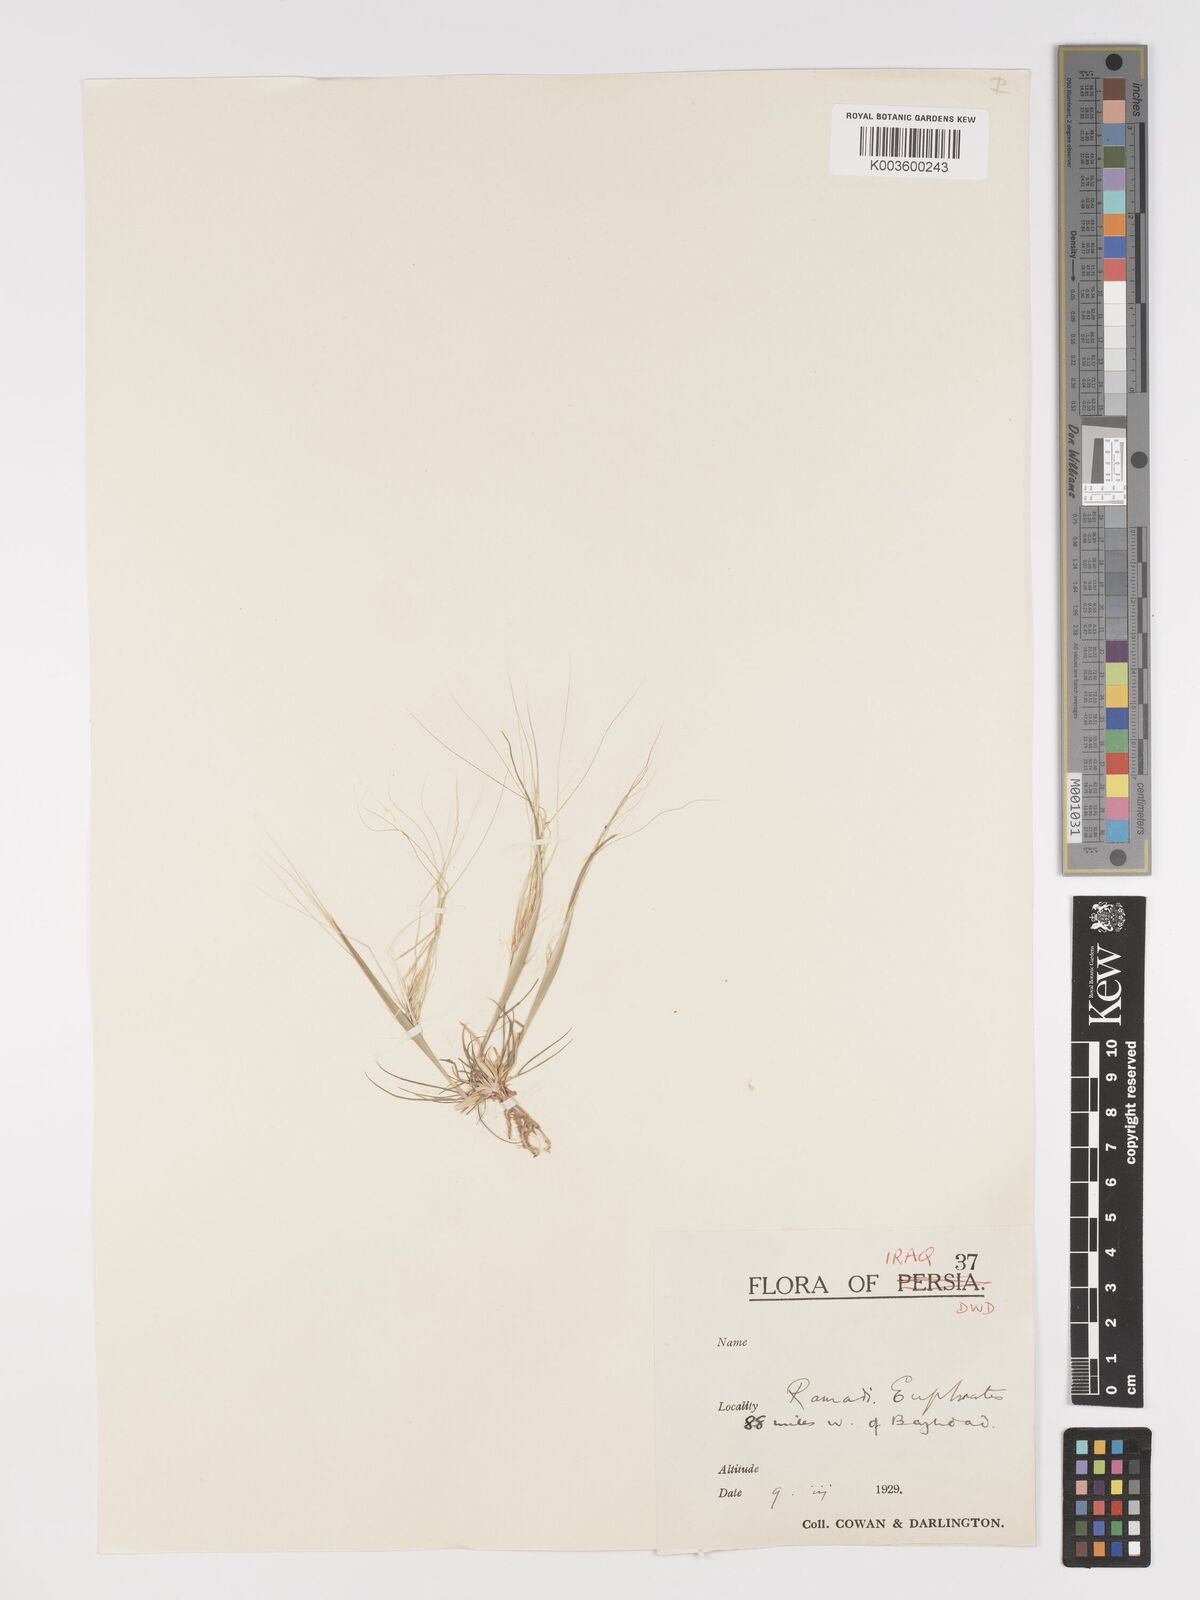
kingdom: Plantae
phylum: Tracheophyta
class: Liliopsida
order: Poales
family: Poaceae
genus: Stipellula
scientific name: Stipellula capensis
